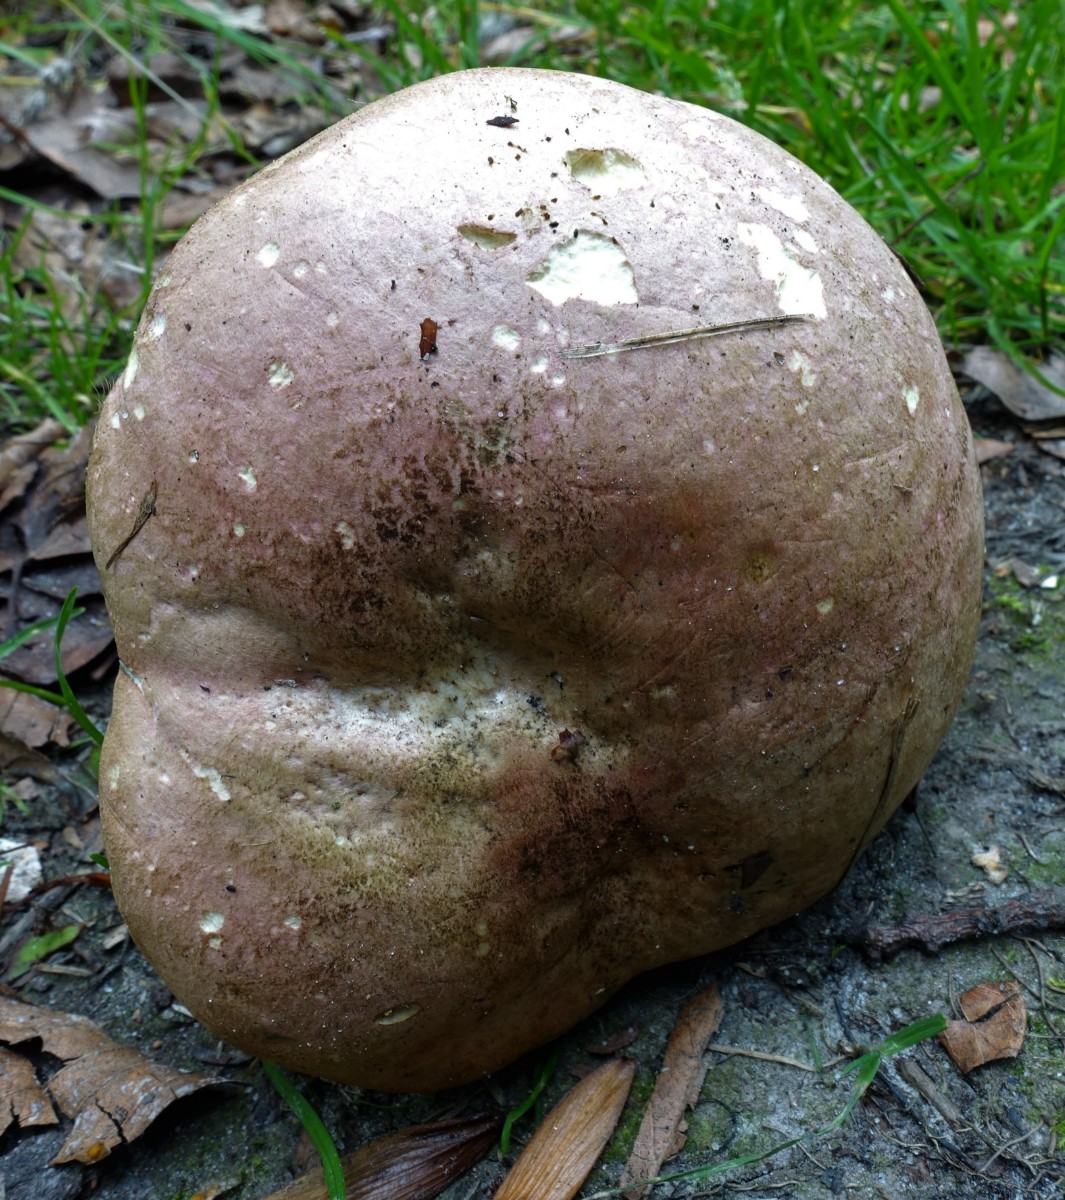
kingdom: Fungi
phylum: Basidiomycota
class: Agaricomycetes
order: Boletales
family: Boletaceae
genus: Rubroboletus
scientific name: Rubroboletus legaliae
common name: djævle-rørhat
